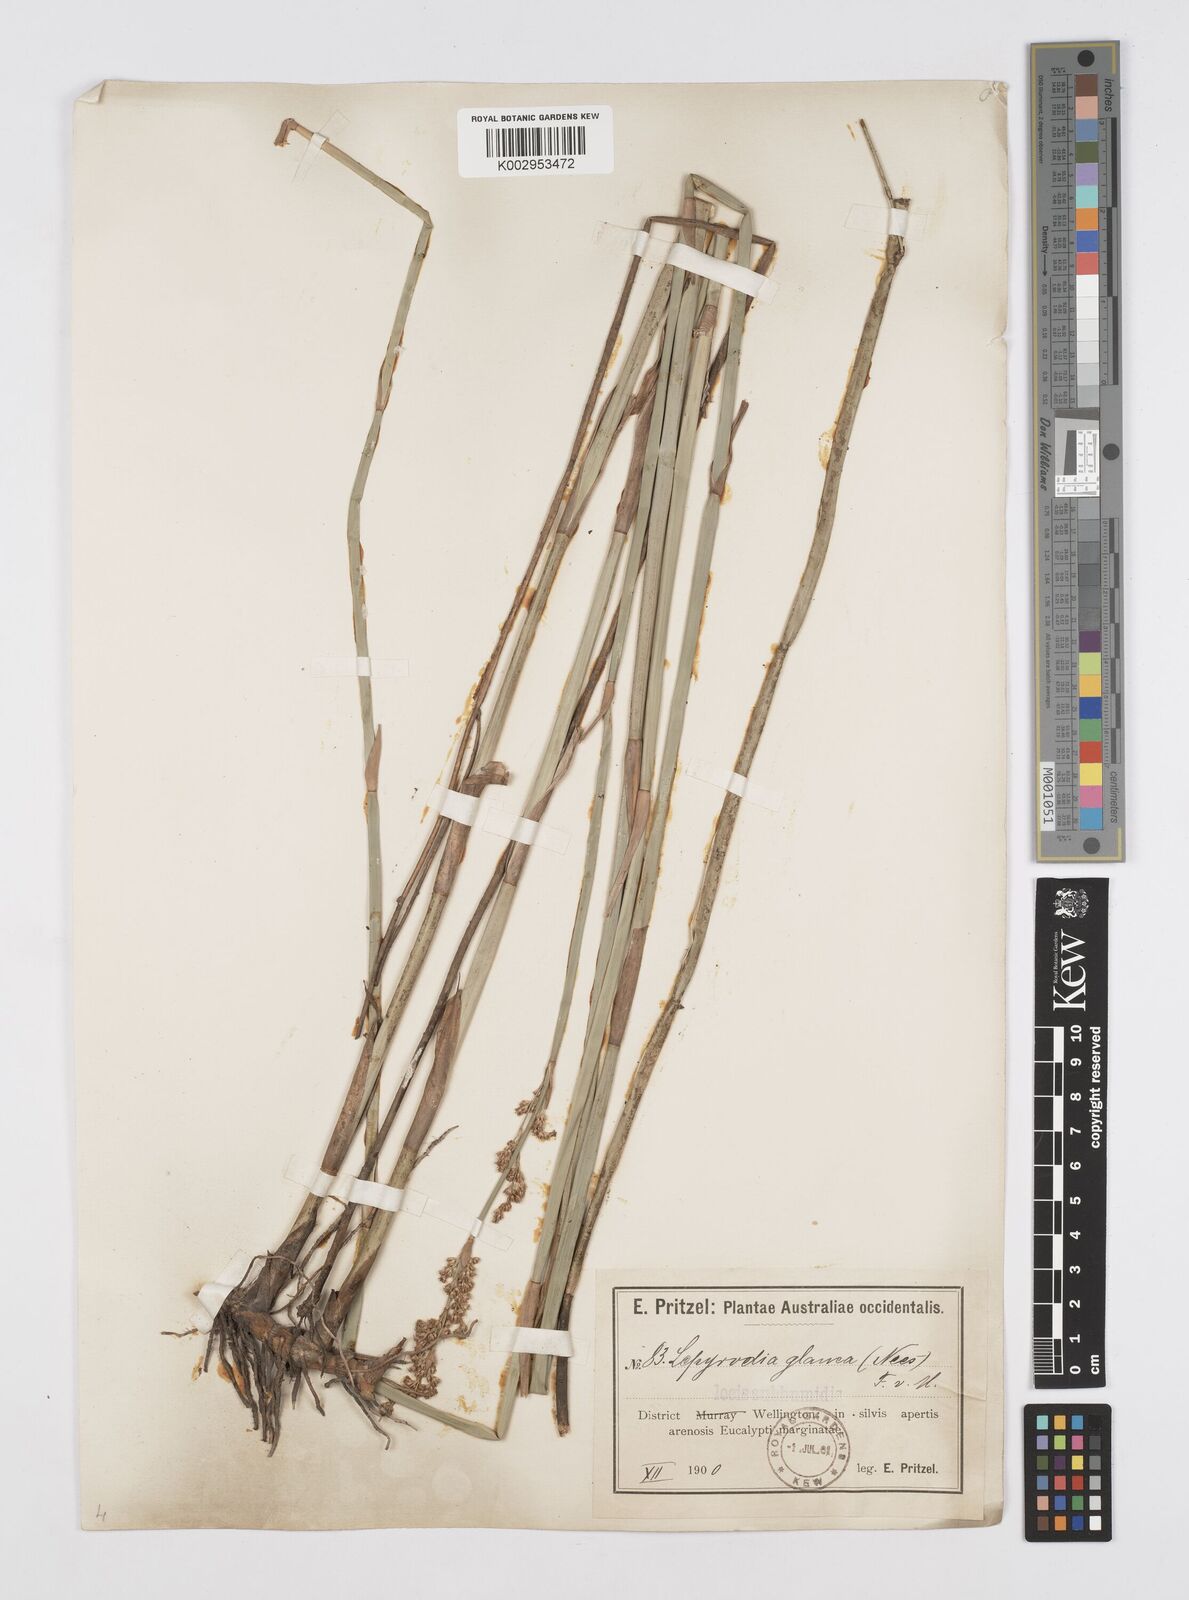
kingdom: Plantae
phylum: Tracheophyta
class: Liliopsida
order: Poales
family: Restionaceae
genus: Lepyrodia
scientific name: Lepyrodia glauca
